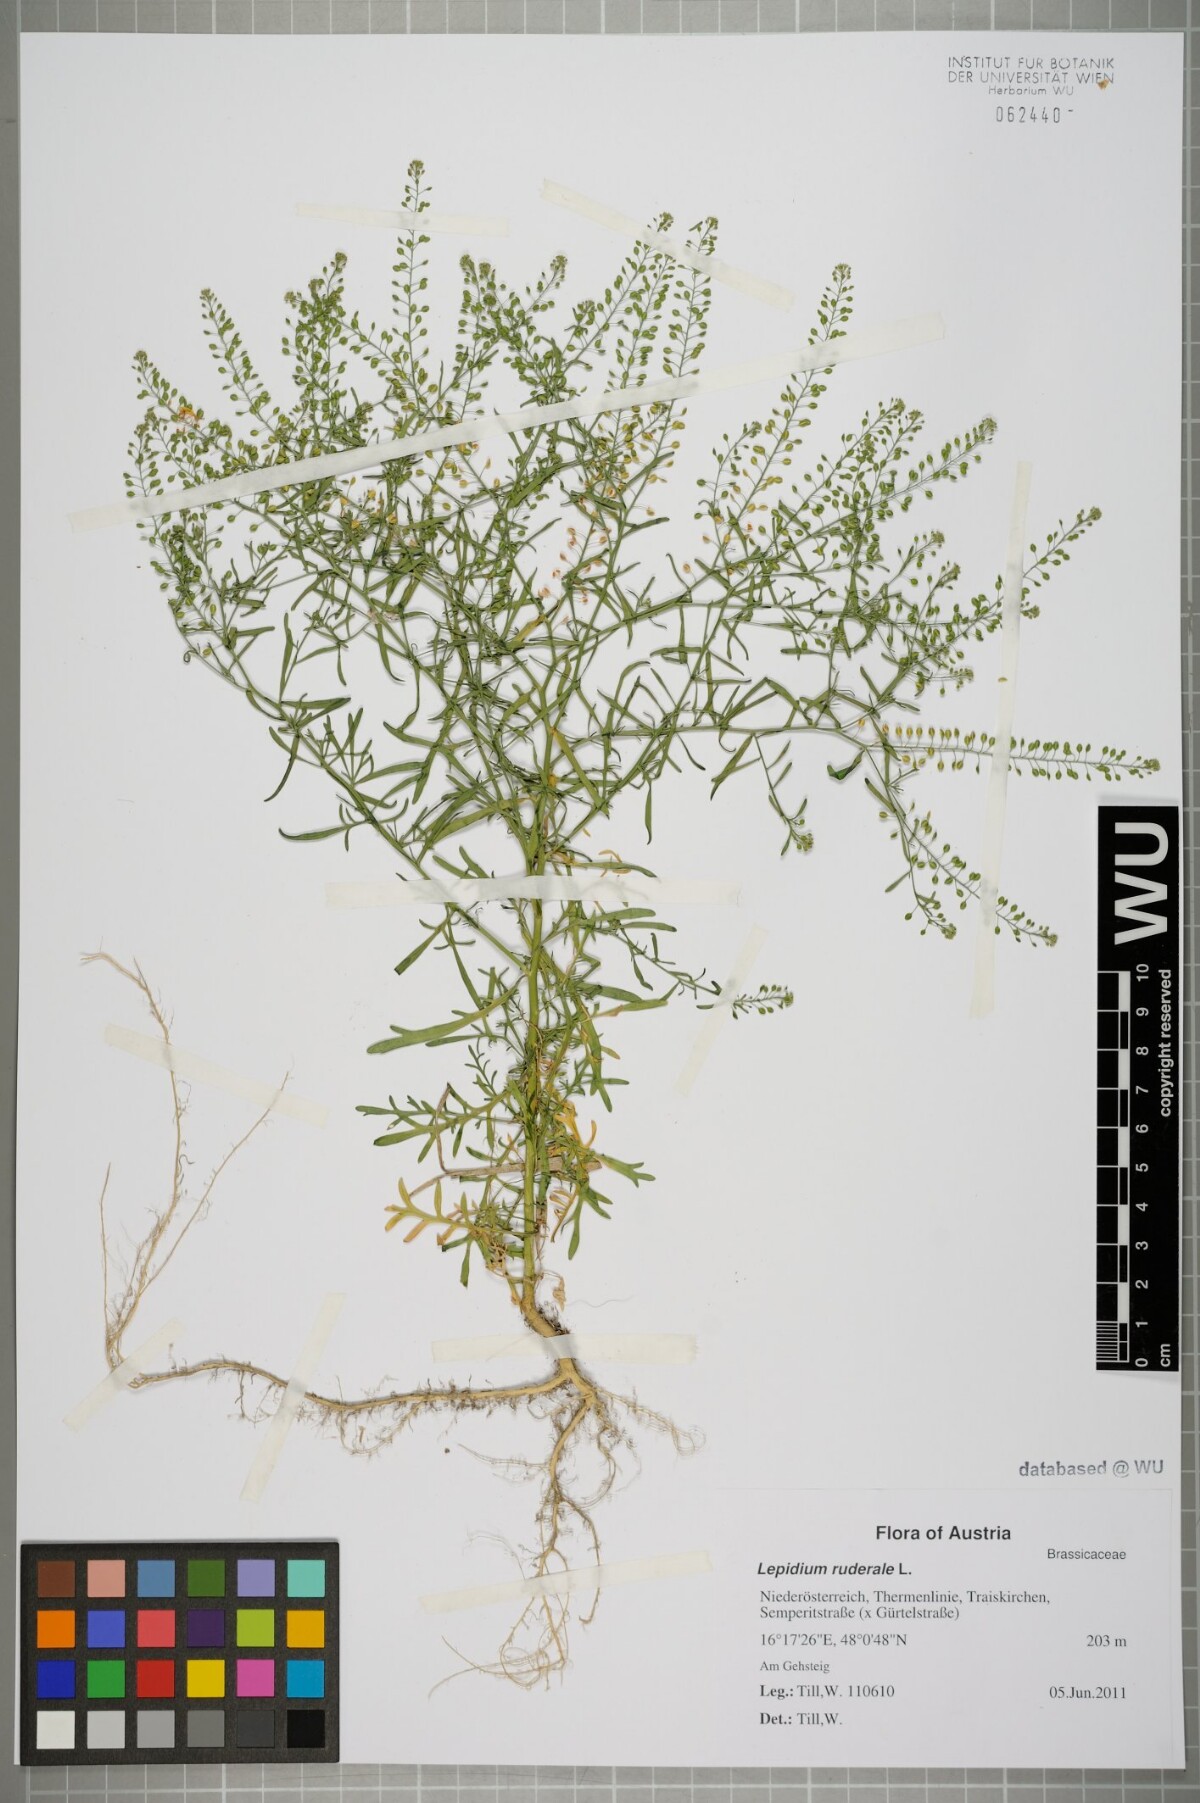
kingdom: Plantae
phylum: Tracheophyta
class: Magnoliopsida
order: Brassicales
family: Brassicaceae
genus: Lepidium
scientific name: Lepidium ruderale
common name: Narrow-leaved pepperwort
